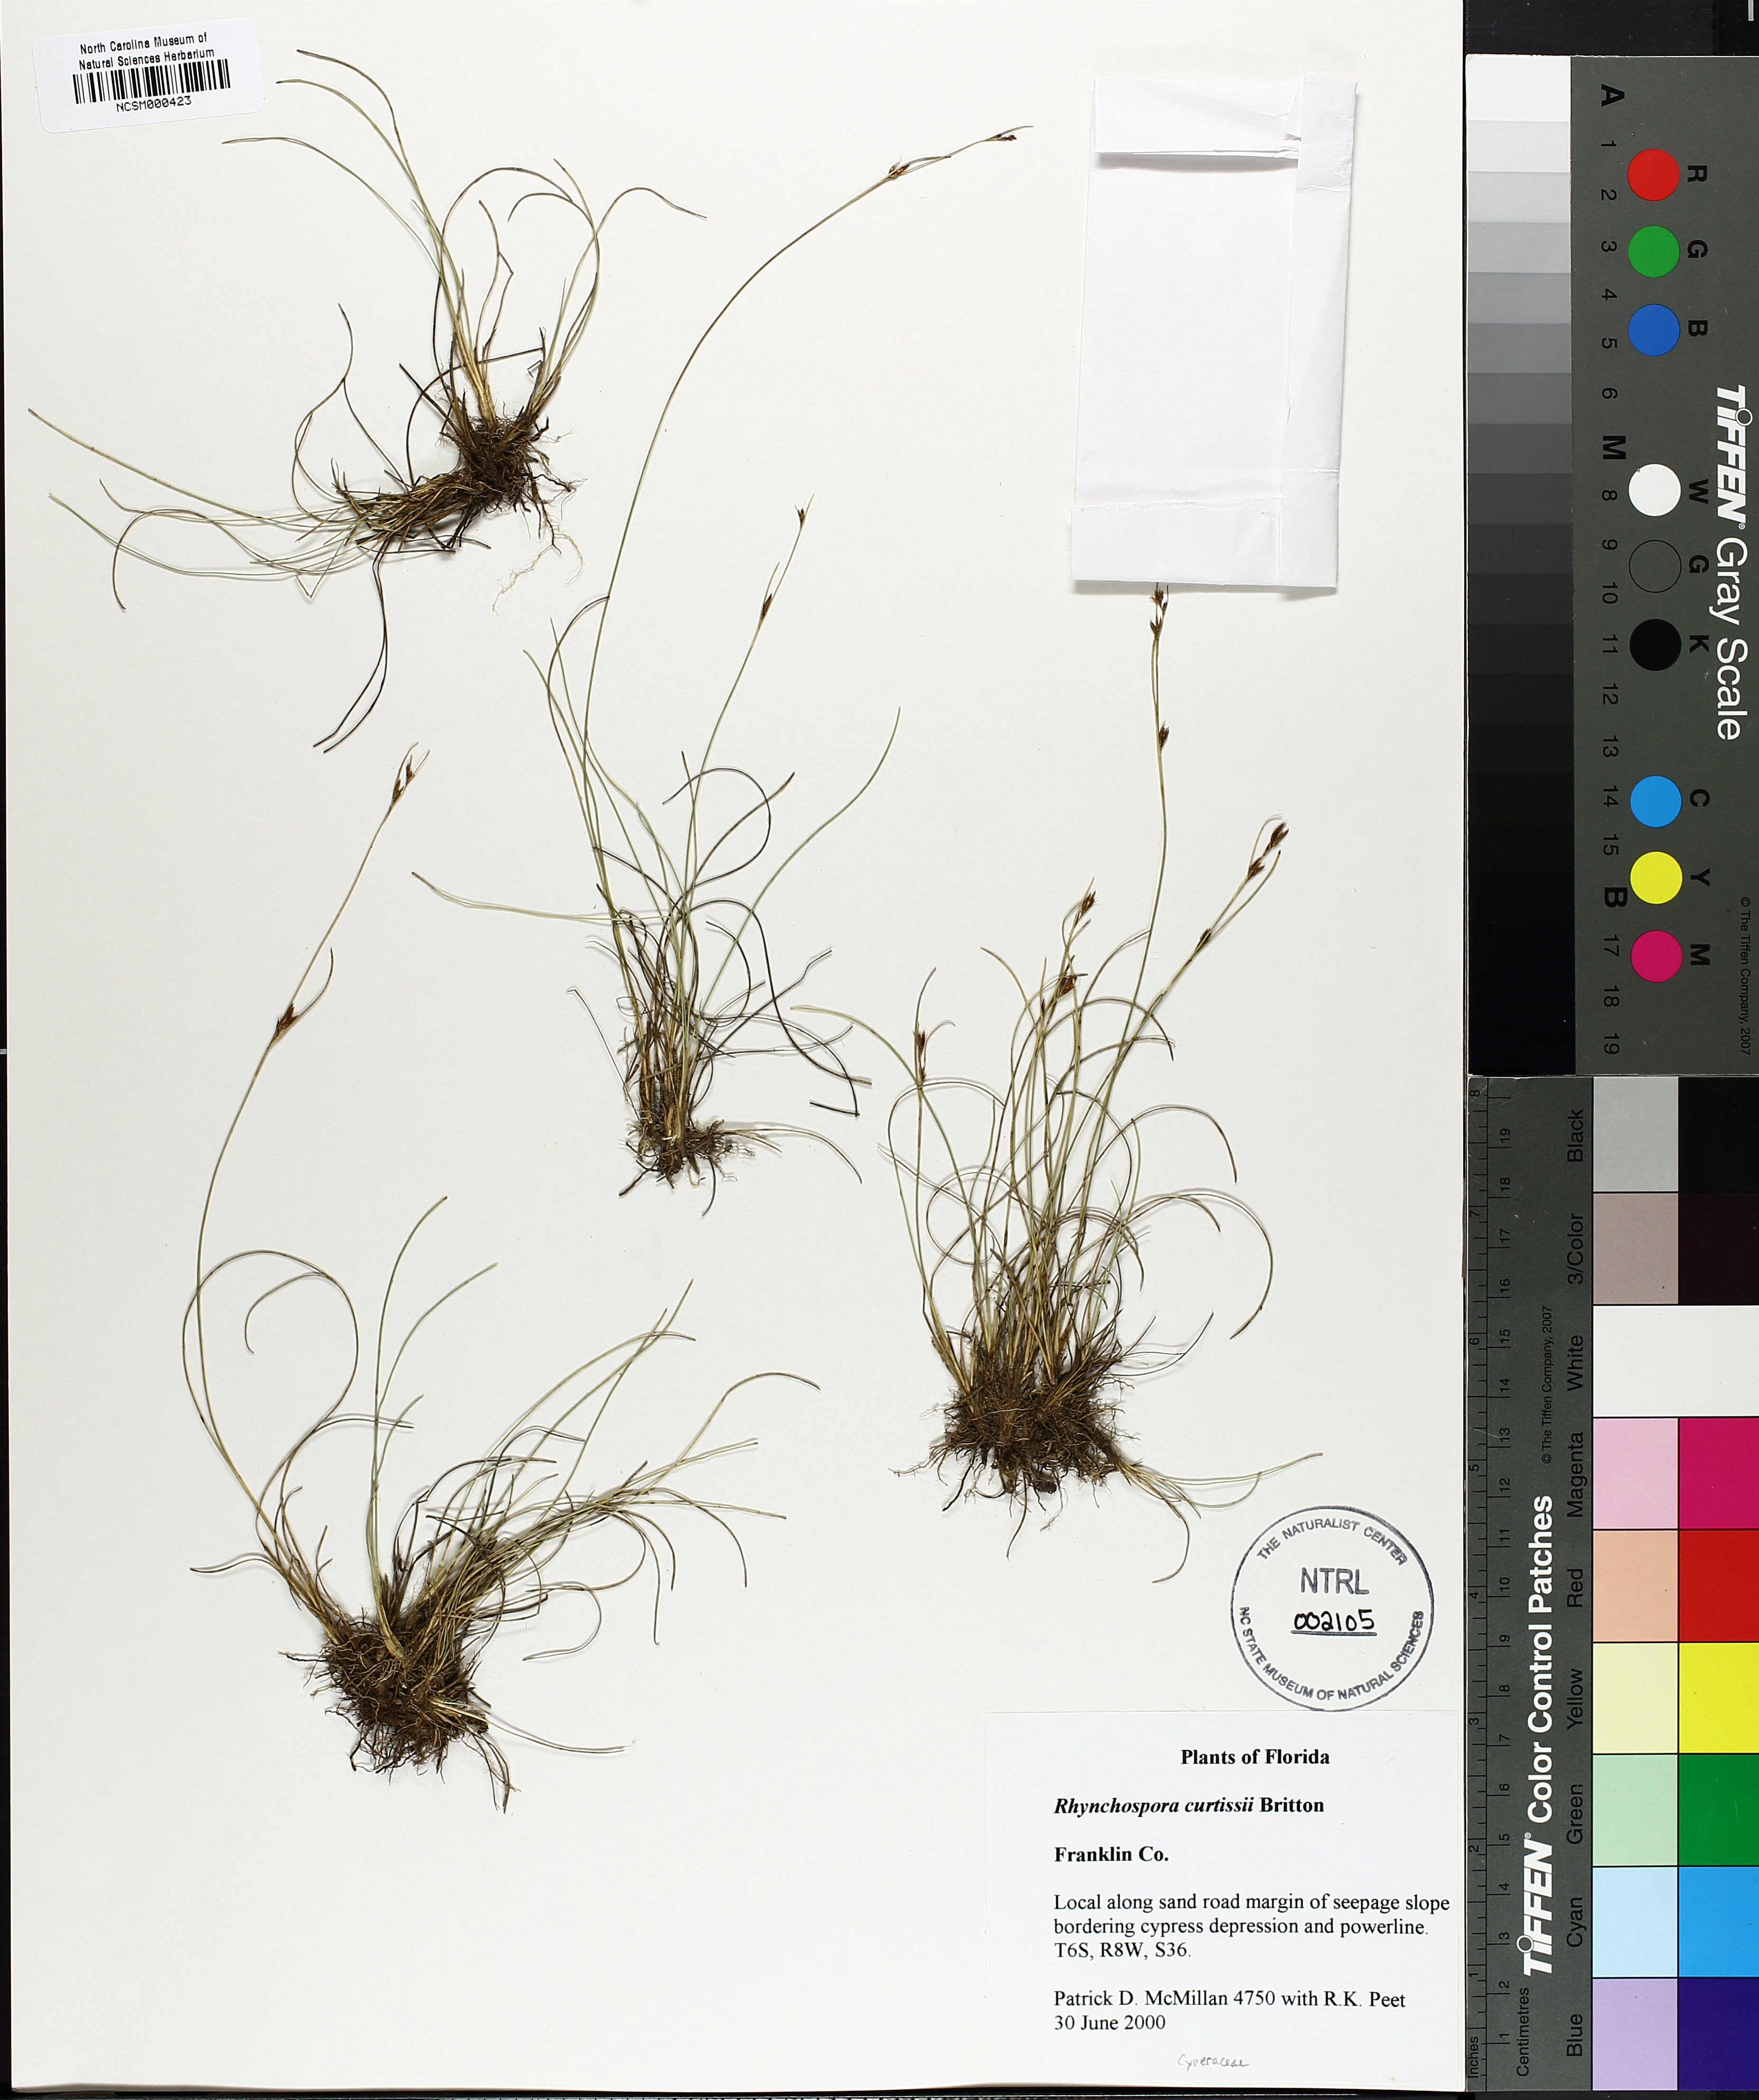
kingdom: Plantae
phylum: Tracheophyta
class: Liliopsida
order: Poales
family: Cyperaceae
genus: Rhynchospora
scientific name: Rhynchospora curtissii
